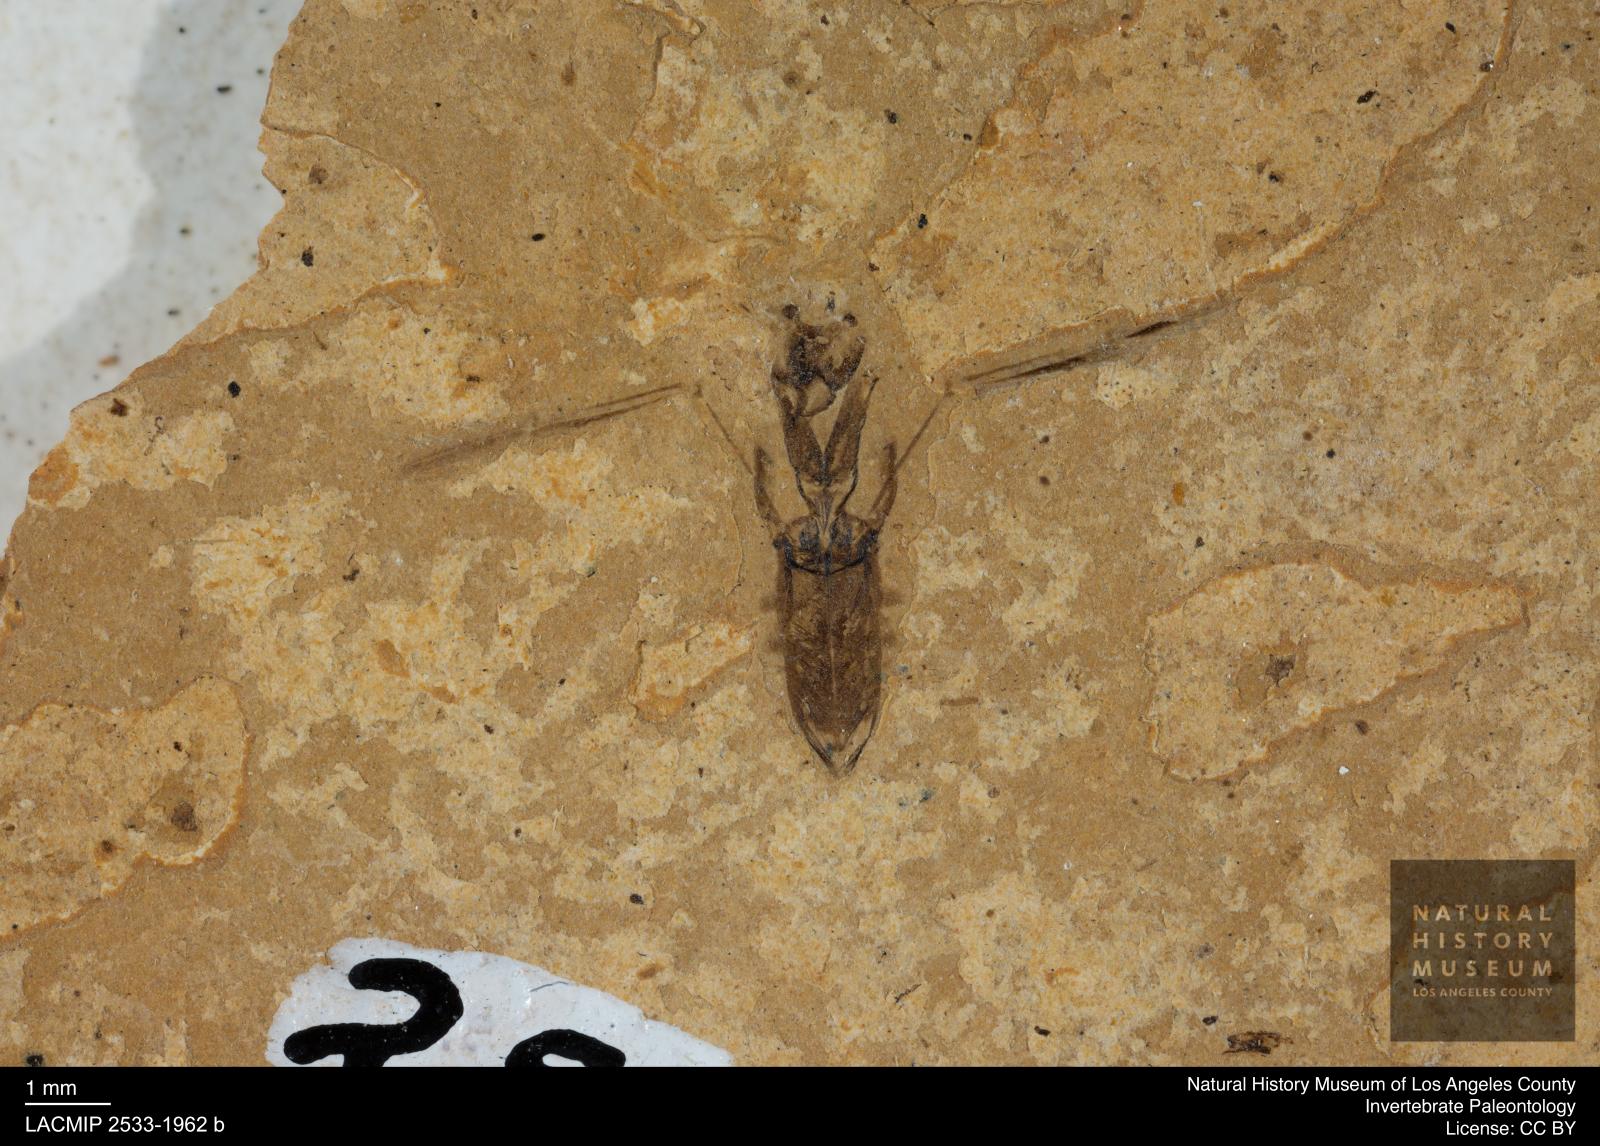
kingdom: Animalia
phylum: Arthropoda
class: Insecta
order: Hemiptera
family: Notonectidae
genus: Anisops
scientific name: Anisops Notonecta deichmuelleri
